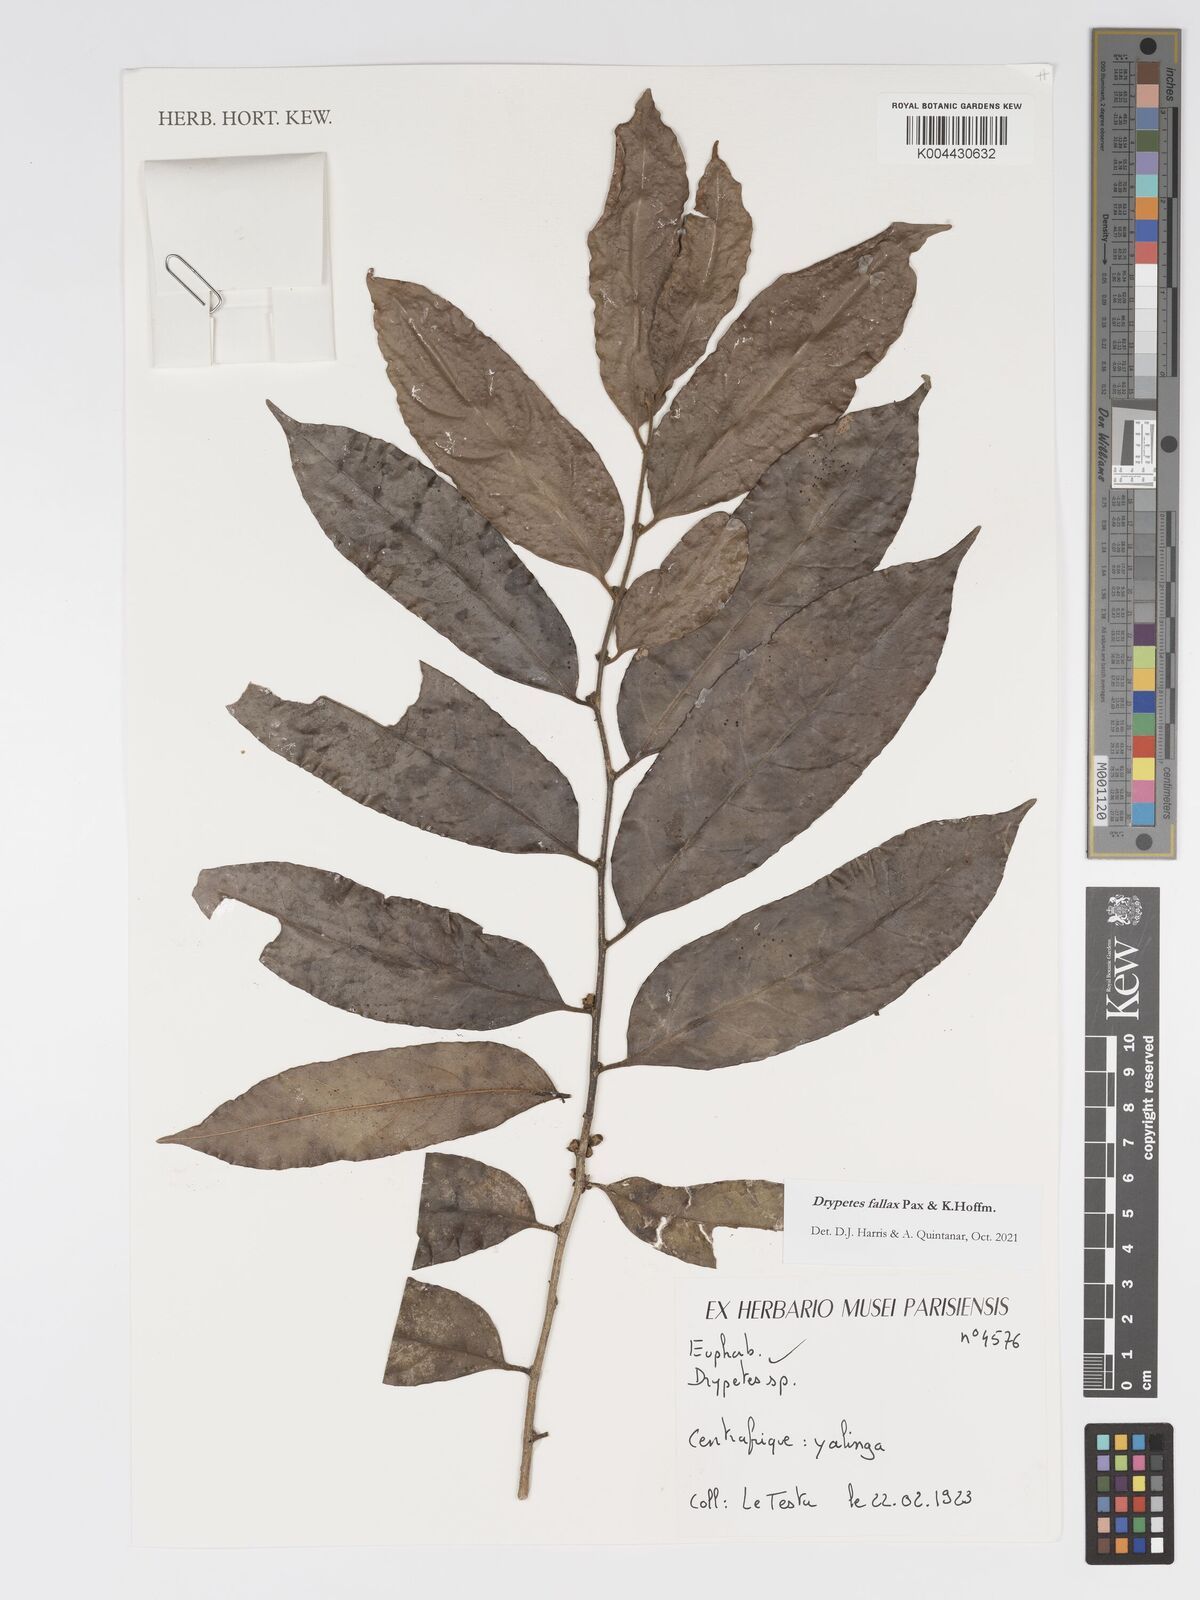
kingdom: Plantae
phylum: Tracheophyta
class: Magnoliopsida
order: Malpighiales
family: Putranjivaceae
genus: Drypetes
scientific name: Drypetes fallax
